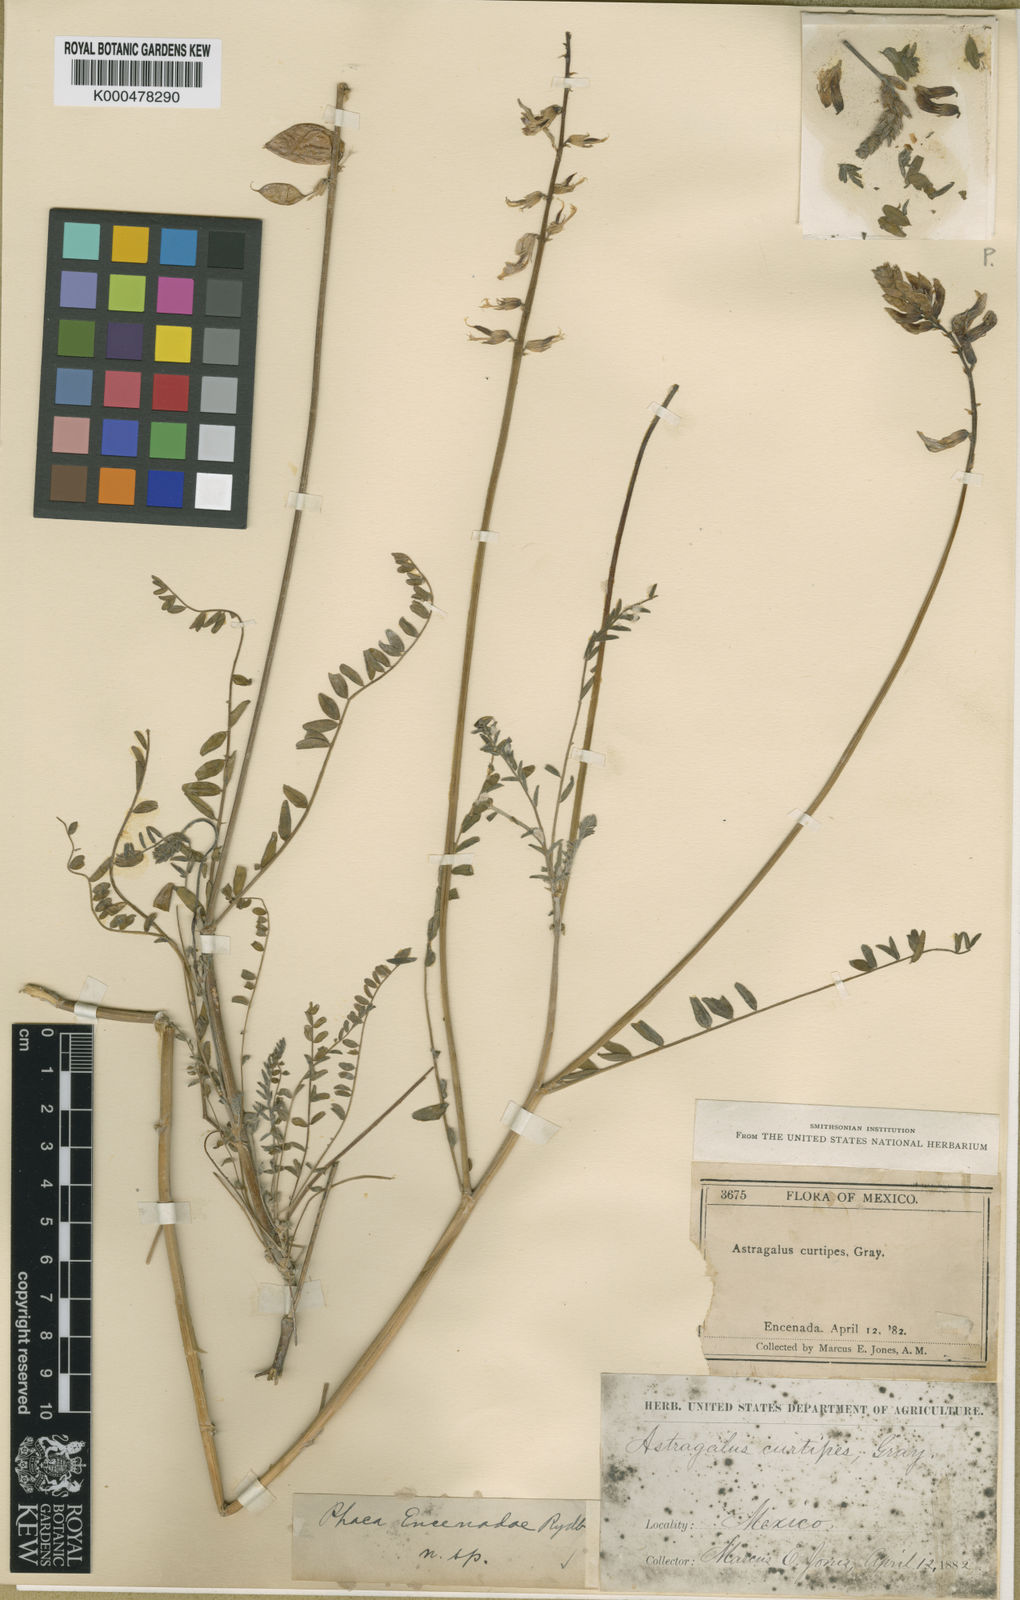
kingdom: Plantae
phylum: Tracheophyta
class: Magnoliopsida
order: Fabales
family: Fabaceae
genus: Astragalus
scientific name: Astragalus
